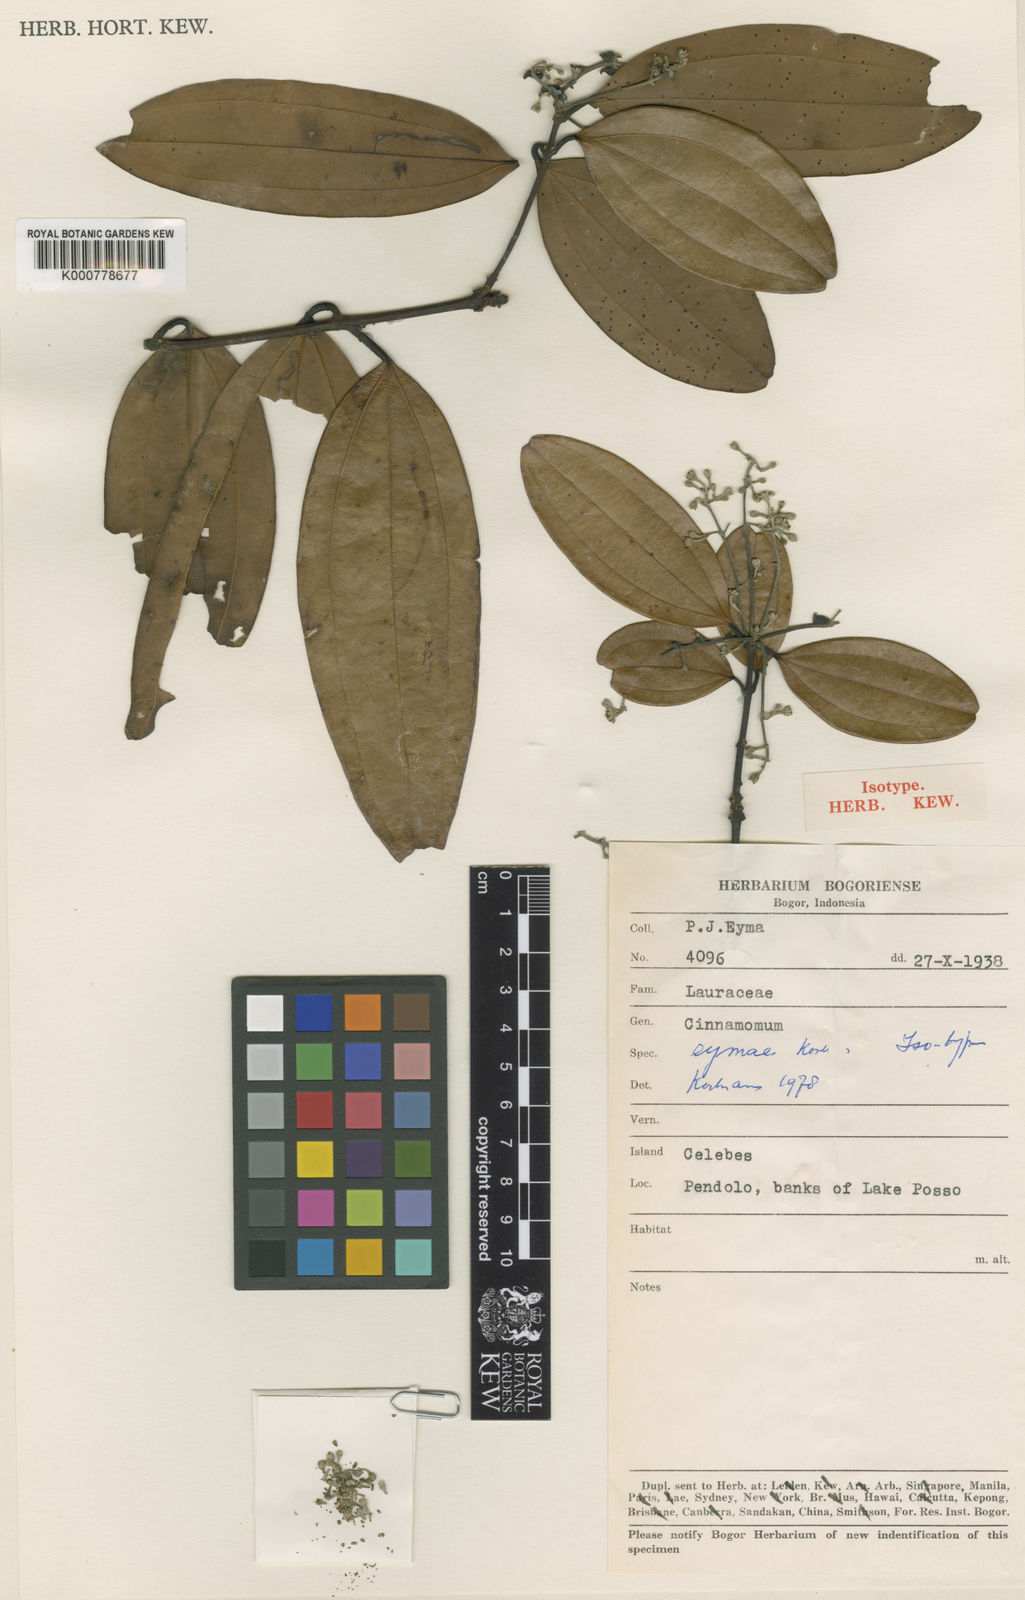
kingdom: Plantae
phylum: Tracheophyta
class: Magnoliopsida
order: Laurales
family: Lauraceae
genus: Cinnamomum
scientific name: Cinnamomum
